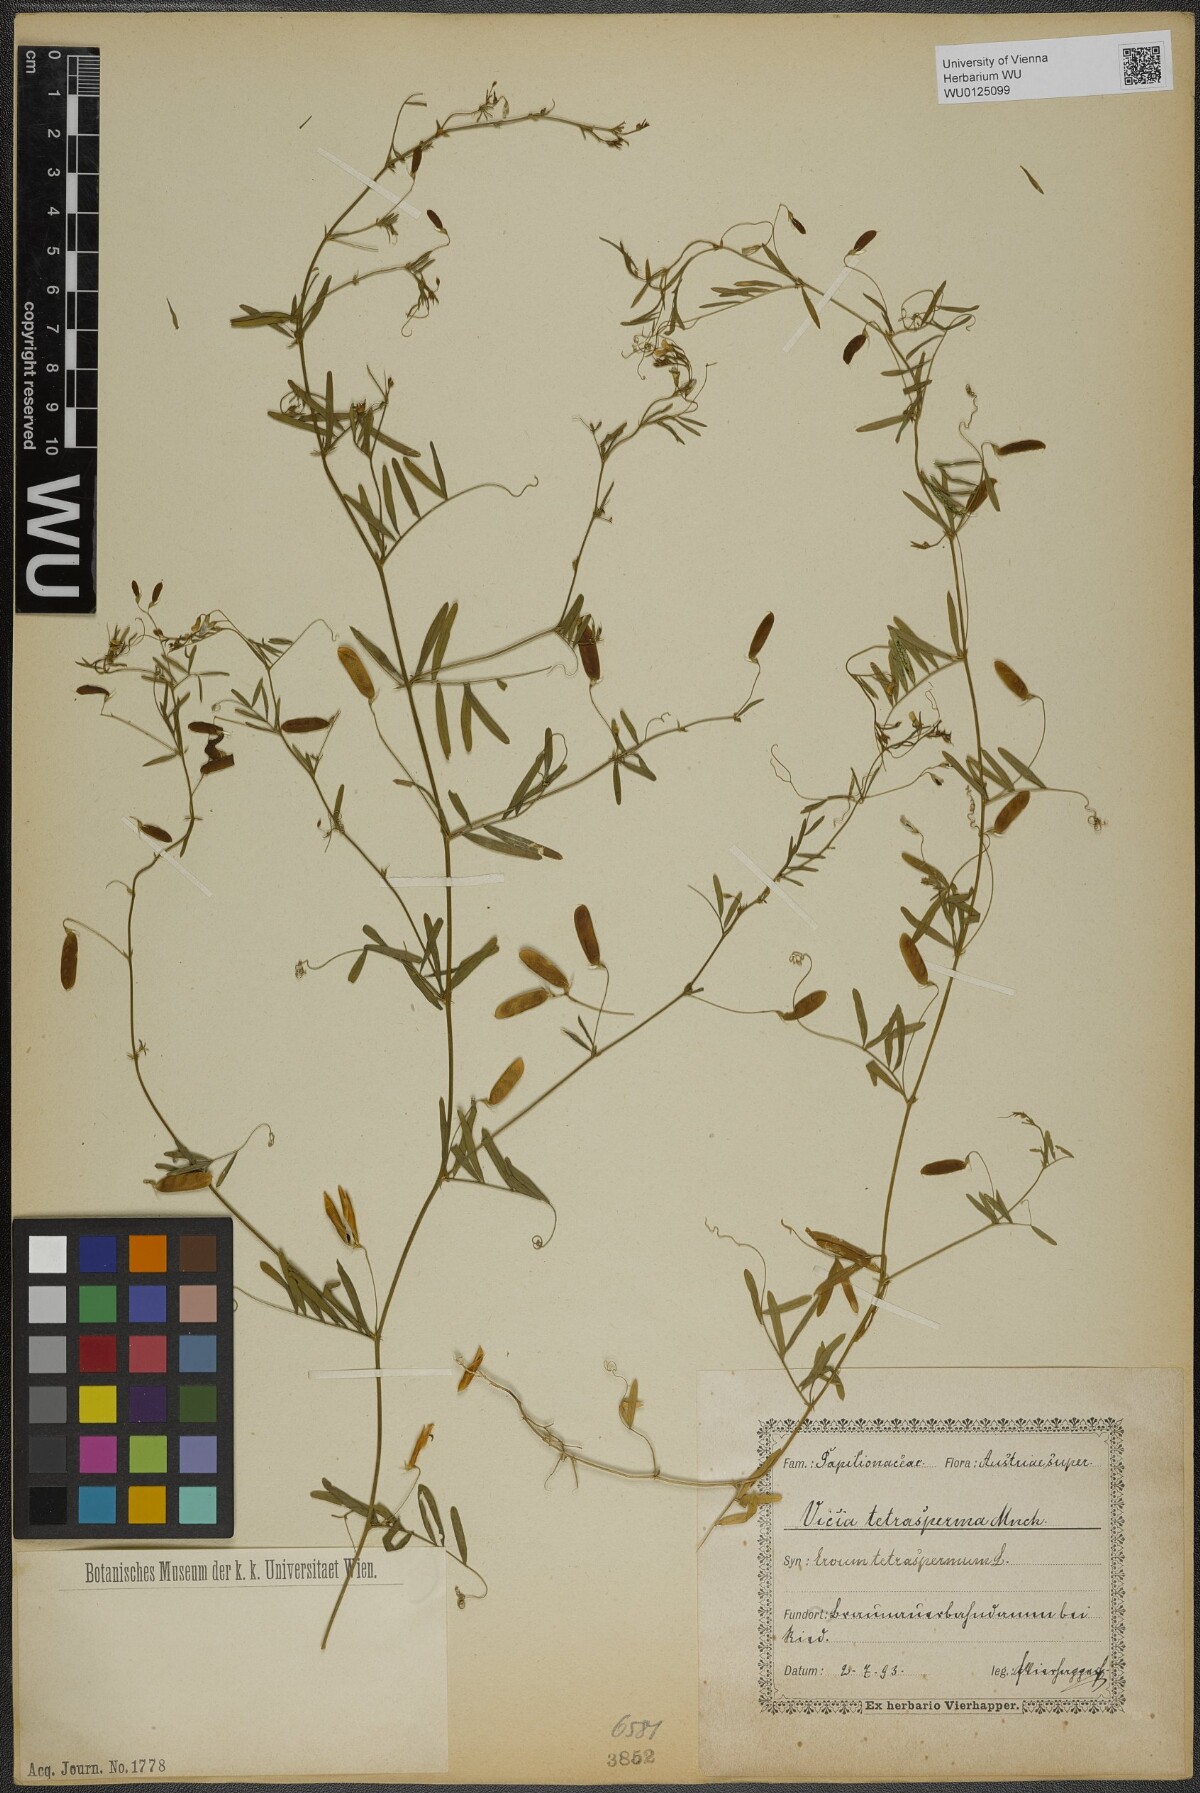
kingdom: Plantae
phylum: Tracheophyta
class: Magnoliopsida
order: Fabales
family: Fabaceae
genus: Vicia
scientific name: Vicia tetrasperma
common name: Smooth tare
